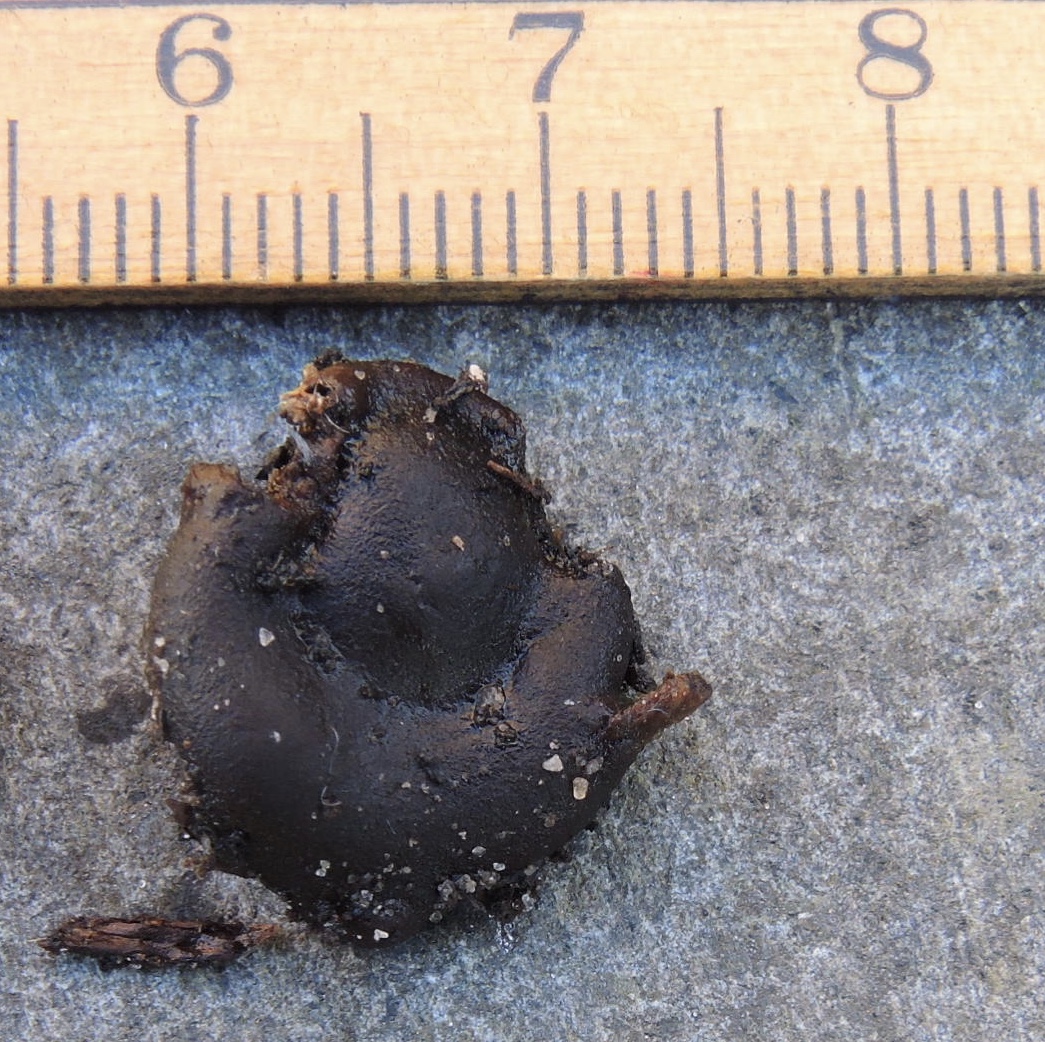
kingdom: Fungi
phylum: Ascomycota
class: Pezizomycetes
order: Pezizales
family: Rhizinaceae
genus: Rhizina
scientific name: Rhizina undulata
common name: rodmorkel
